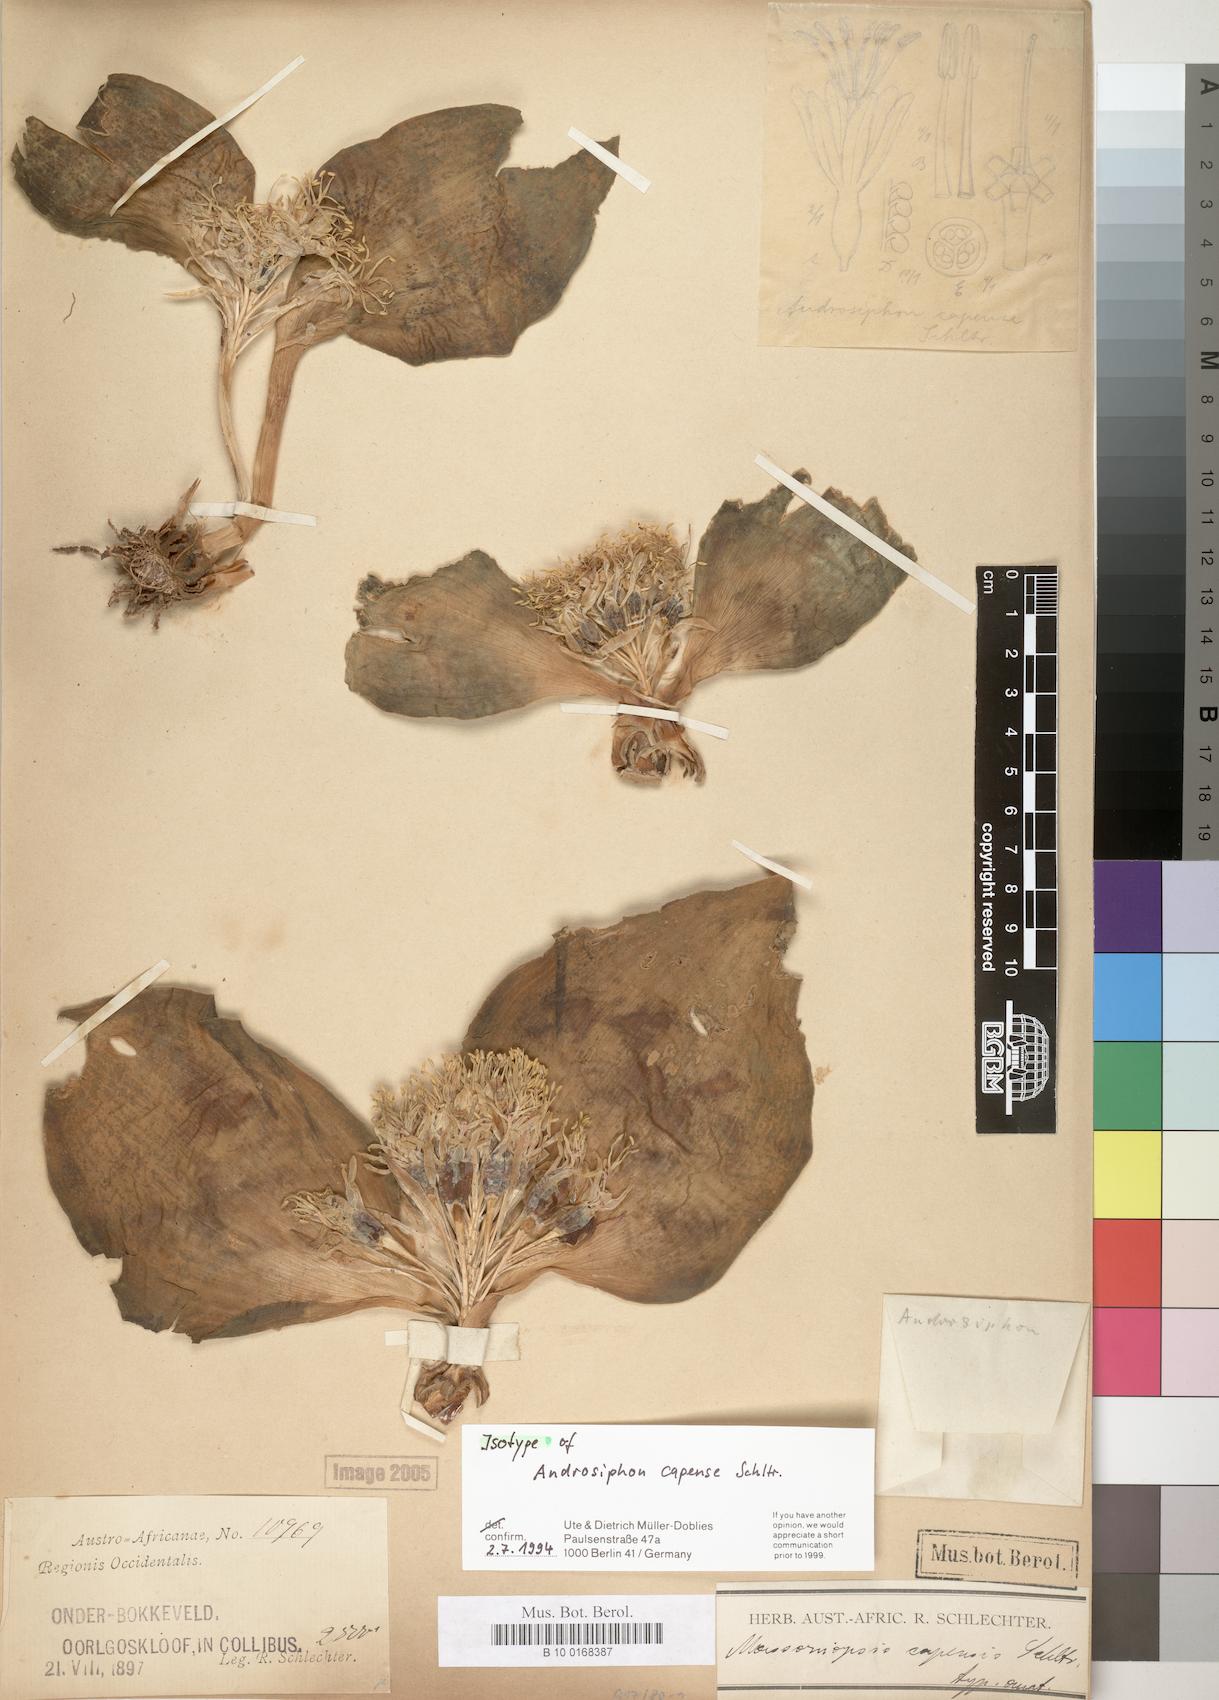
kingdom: Plantae
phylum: Tracheophyta
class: Liliopsida
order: Asparagales
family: Asparagaceae
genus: Daubenya
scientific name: Daubenya capensis
